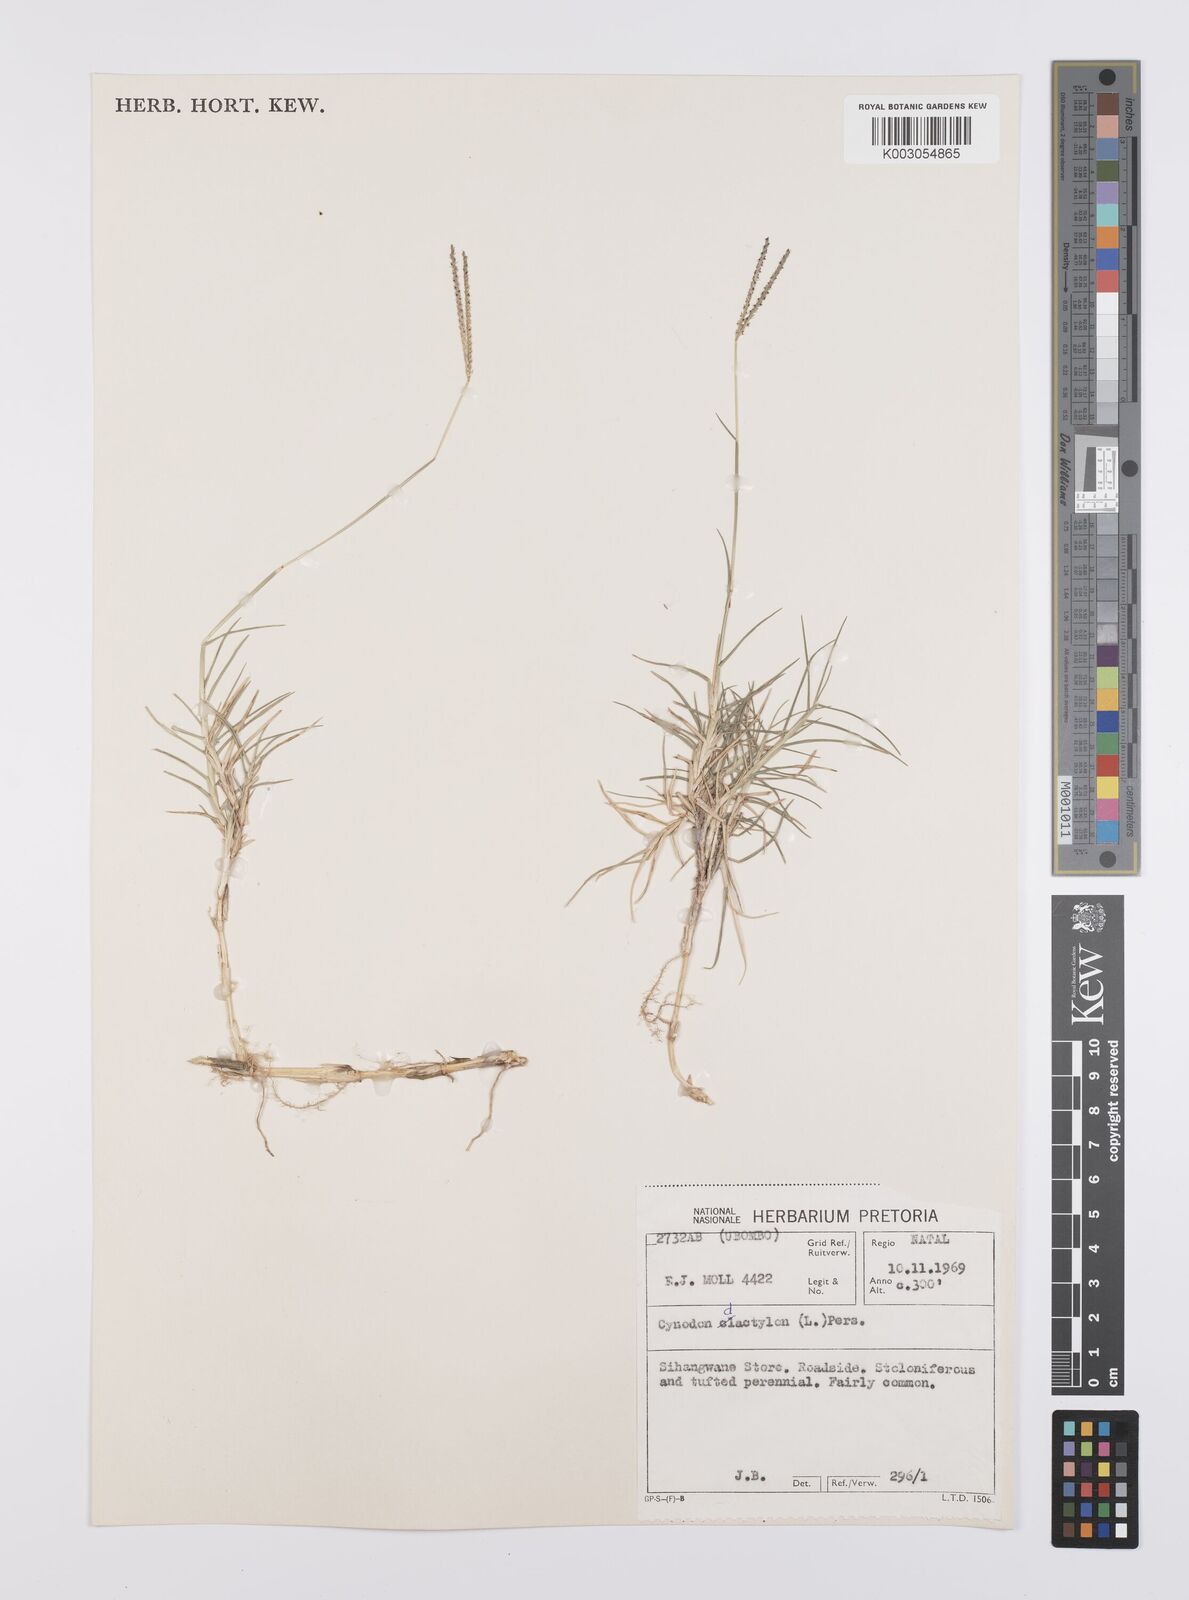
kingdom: Plantae
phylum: Tracheophyta
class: Liliopsida
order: Poales
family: Poaceae
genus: Cynodon
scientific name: Cynodon dactylon
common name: Bermuda grass
